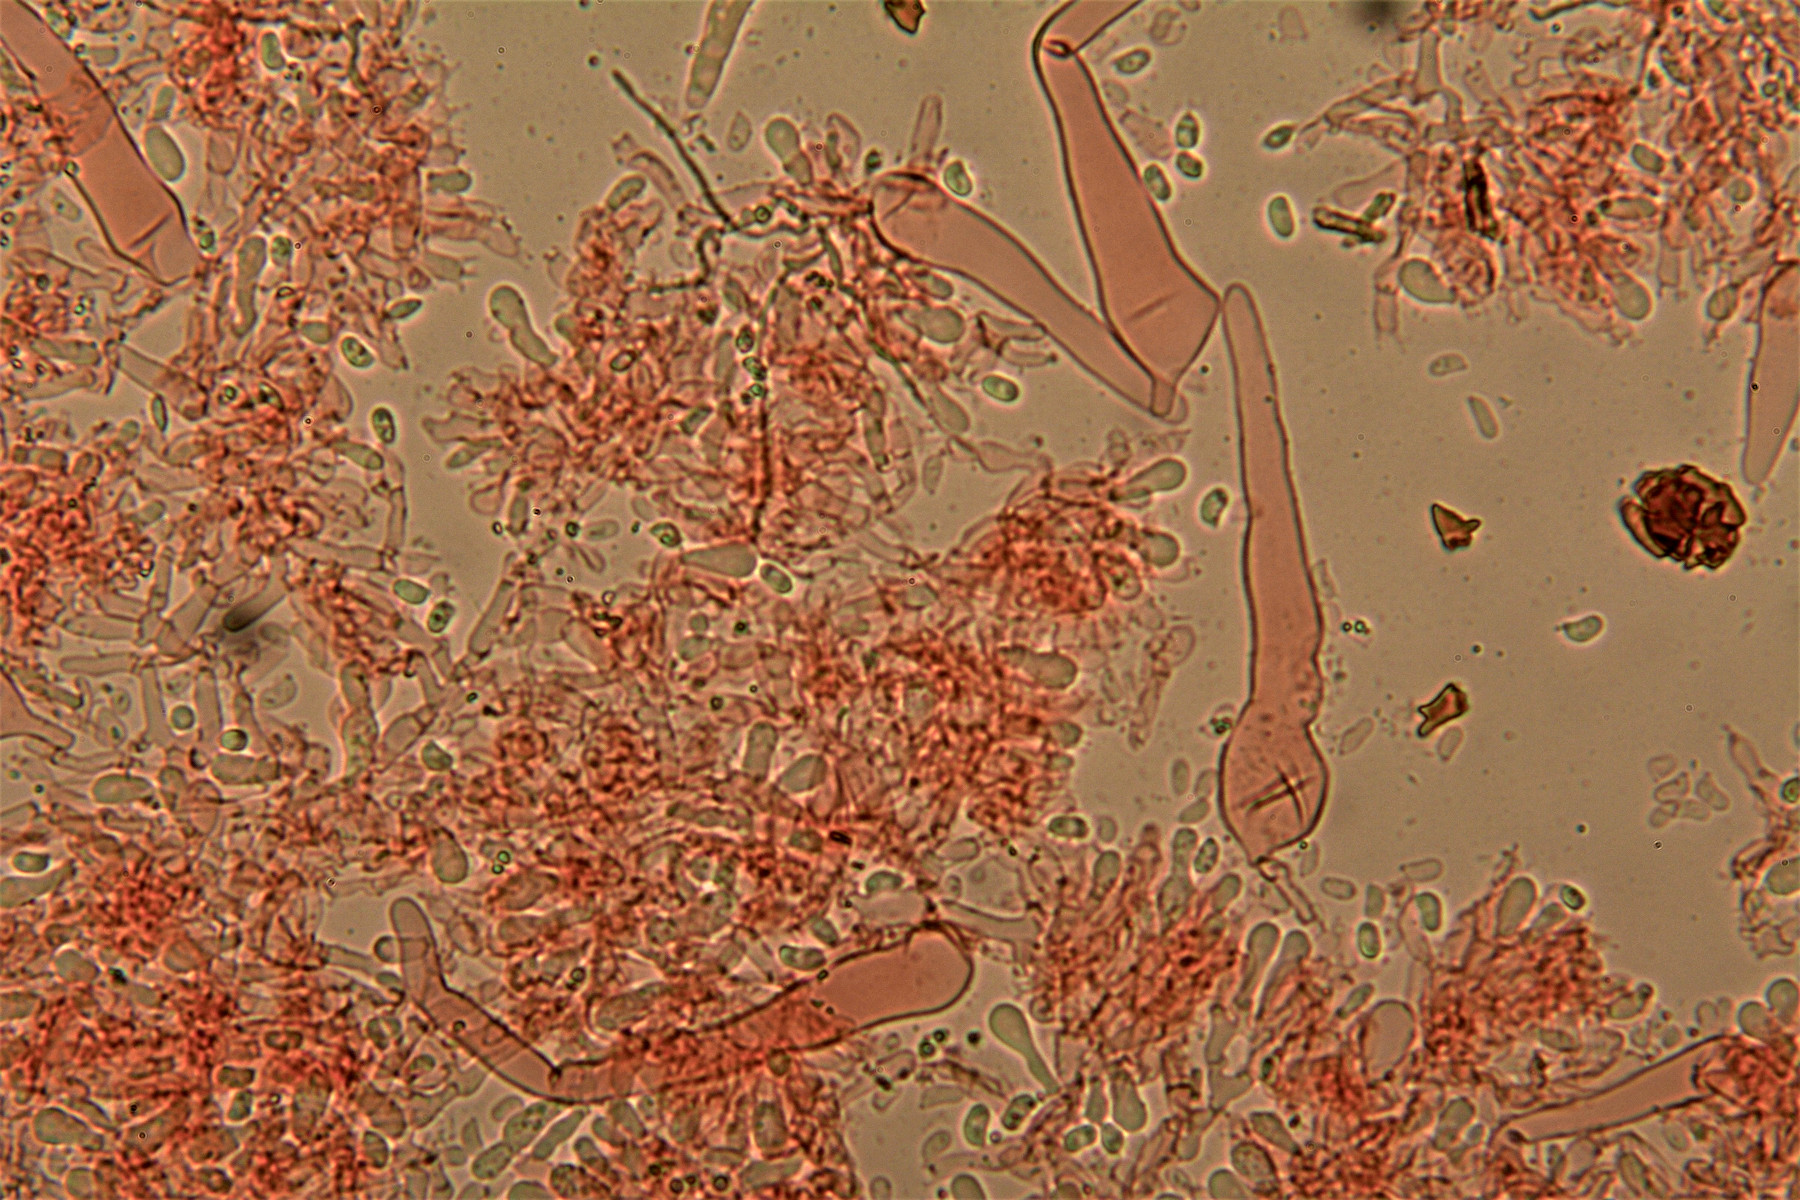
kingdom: Fungi
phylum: Basidiomycota
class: Agaricomycetes
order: Hymenochaetales
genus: Kurtia
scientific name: Kurtia argillacea
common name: Kurts kalkskind
